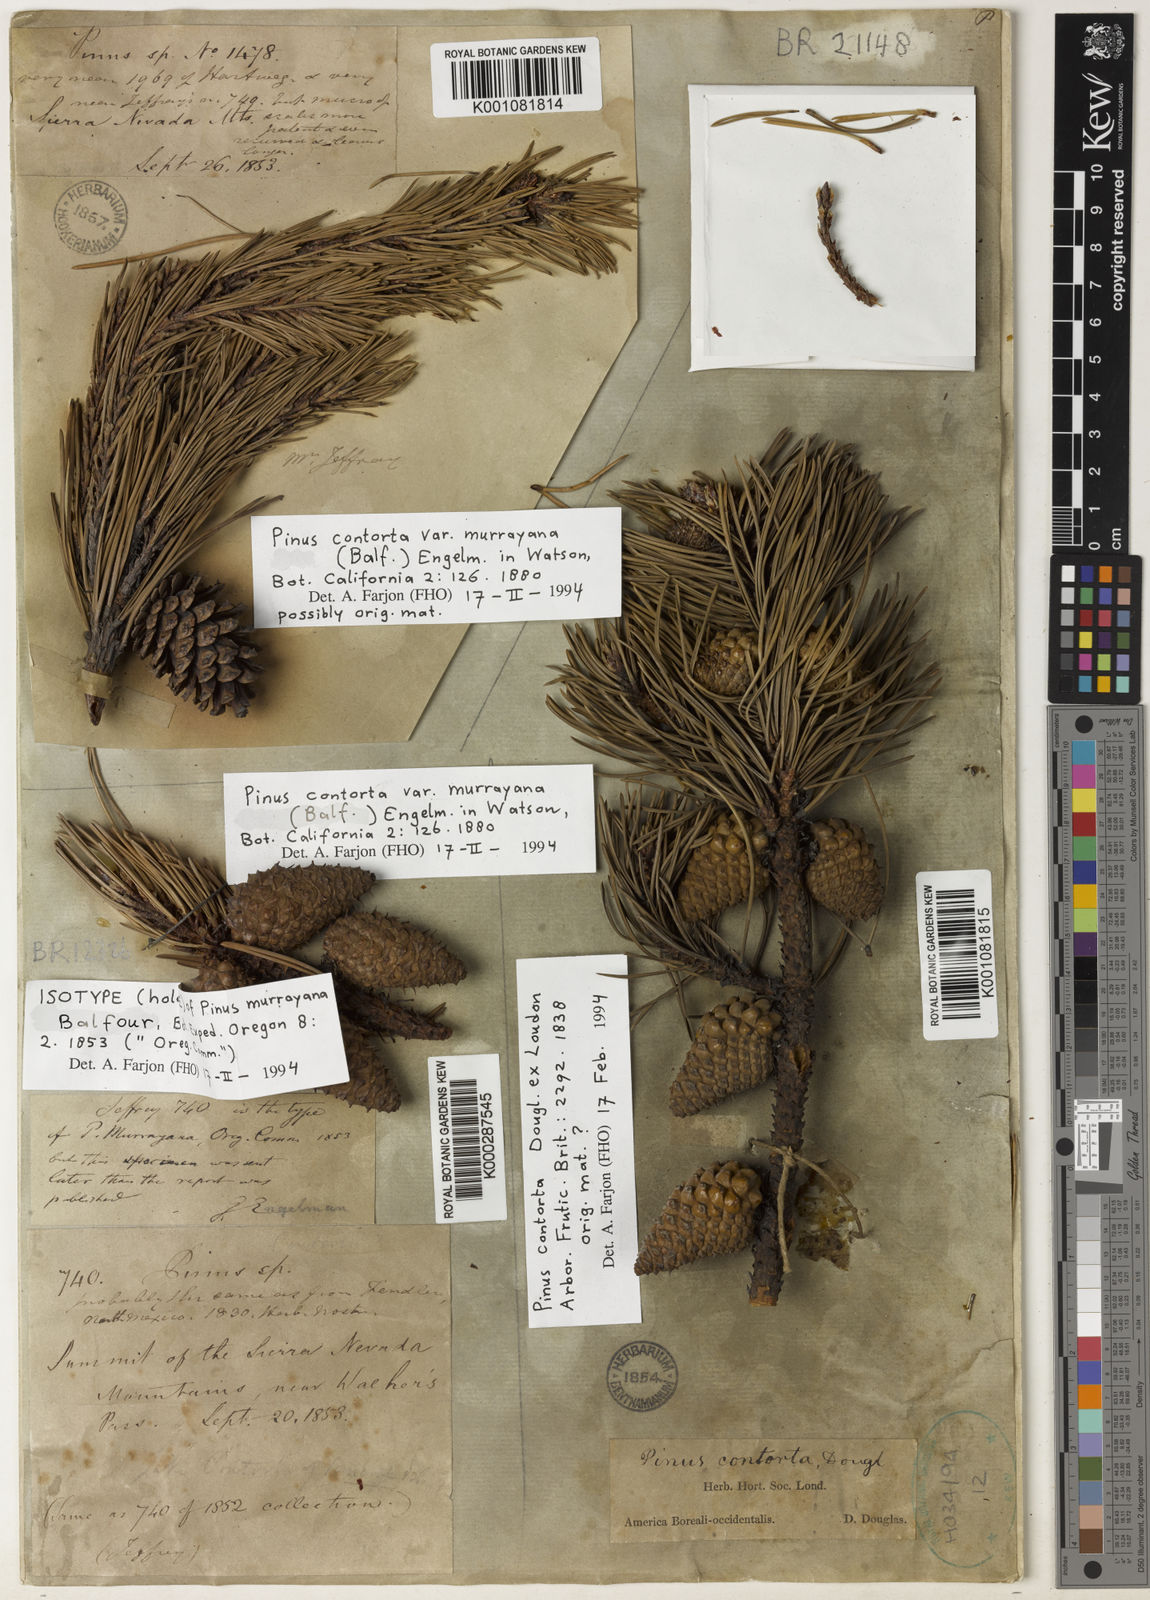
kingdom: Plantae
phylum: Tracheophyta
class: Pinopsida
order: Pinales
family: Pinaceae
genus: Pinus
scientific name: Pinus contorta
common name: Lodgepole pine
